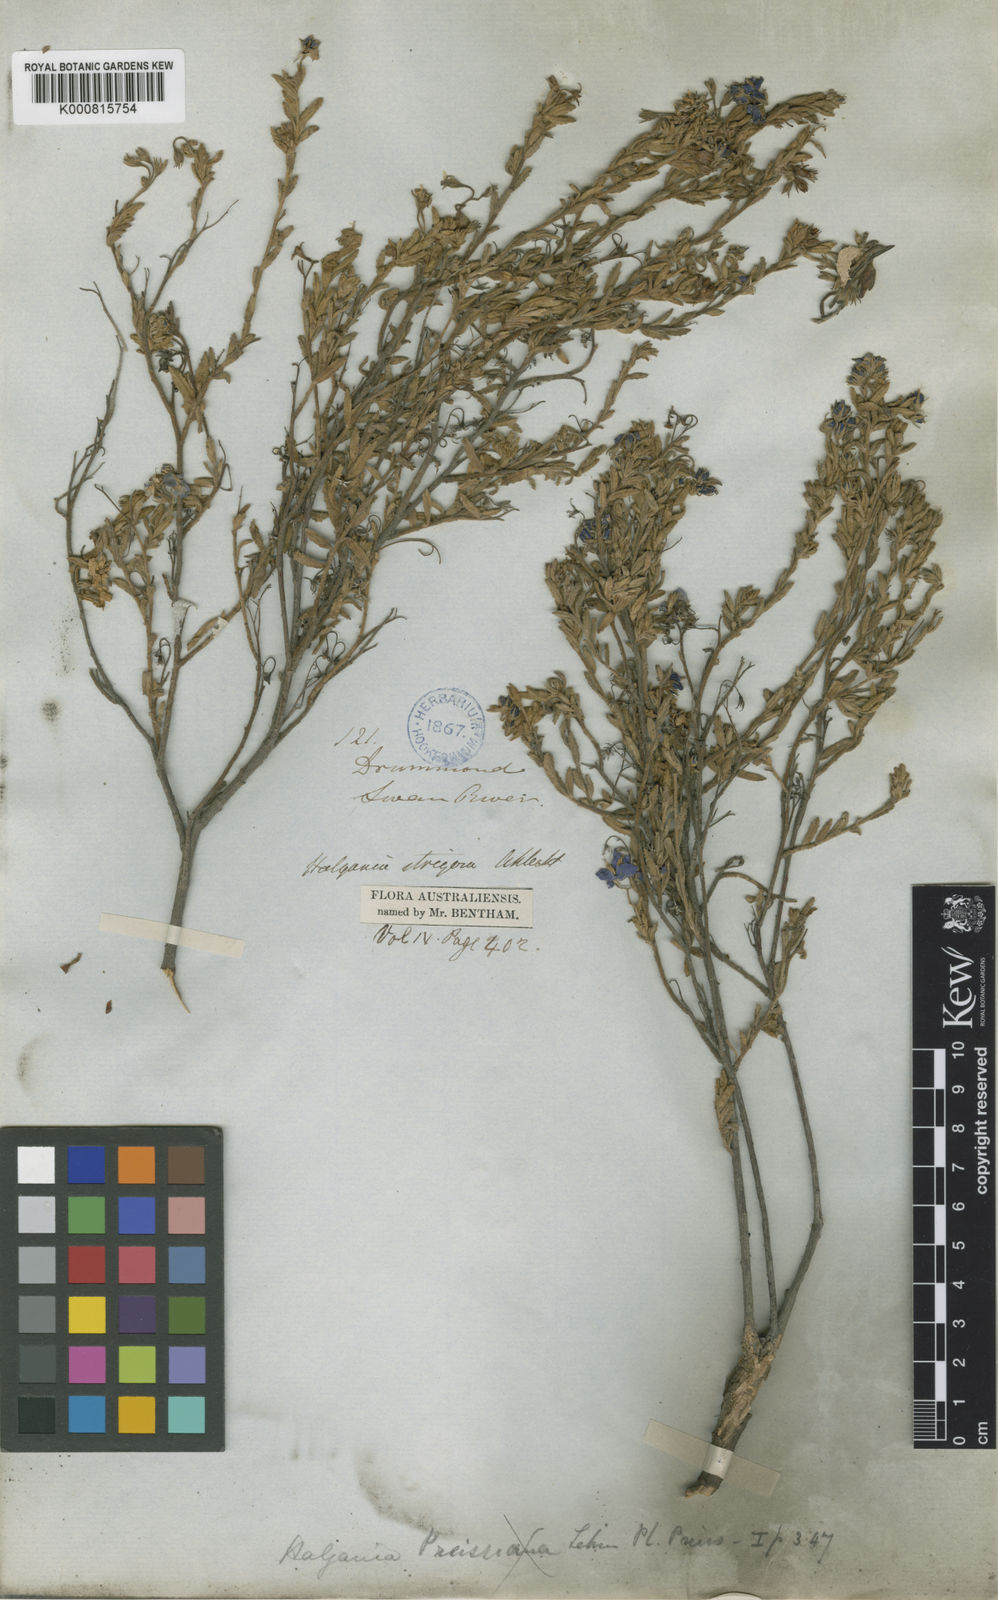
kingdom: Plantae
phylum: Tracheophyta
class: Magnoliopsida
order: Boraginales
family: Ehretiaceae
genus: Halgania
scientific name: Halgania cyanea
